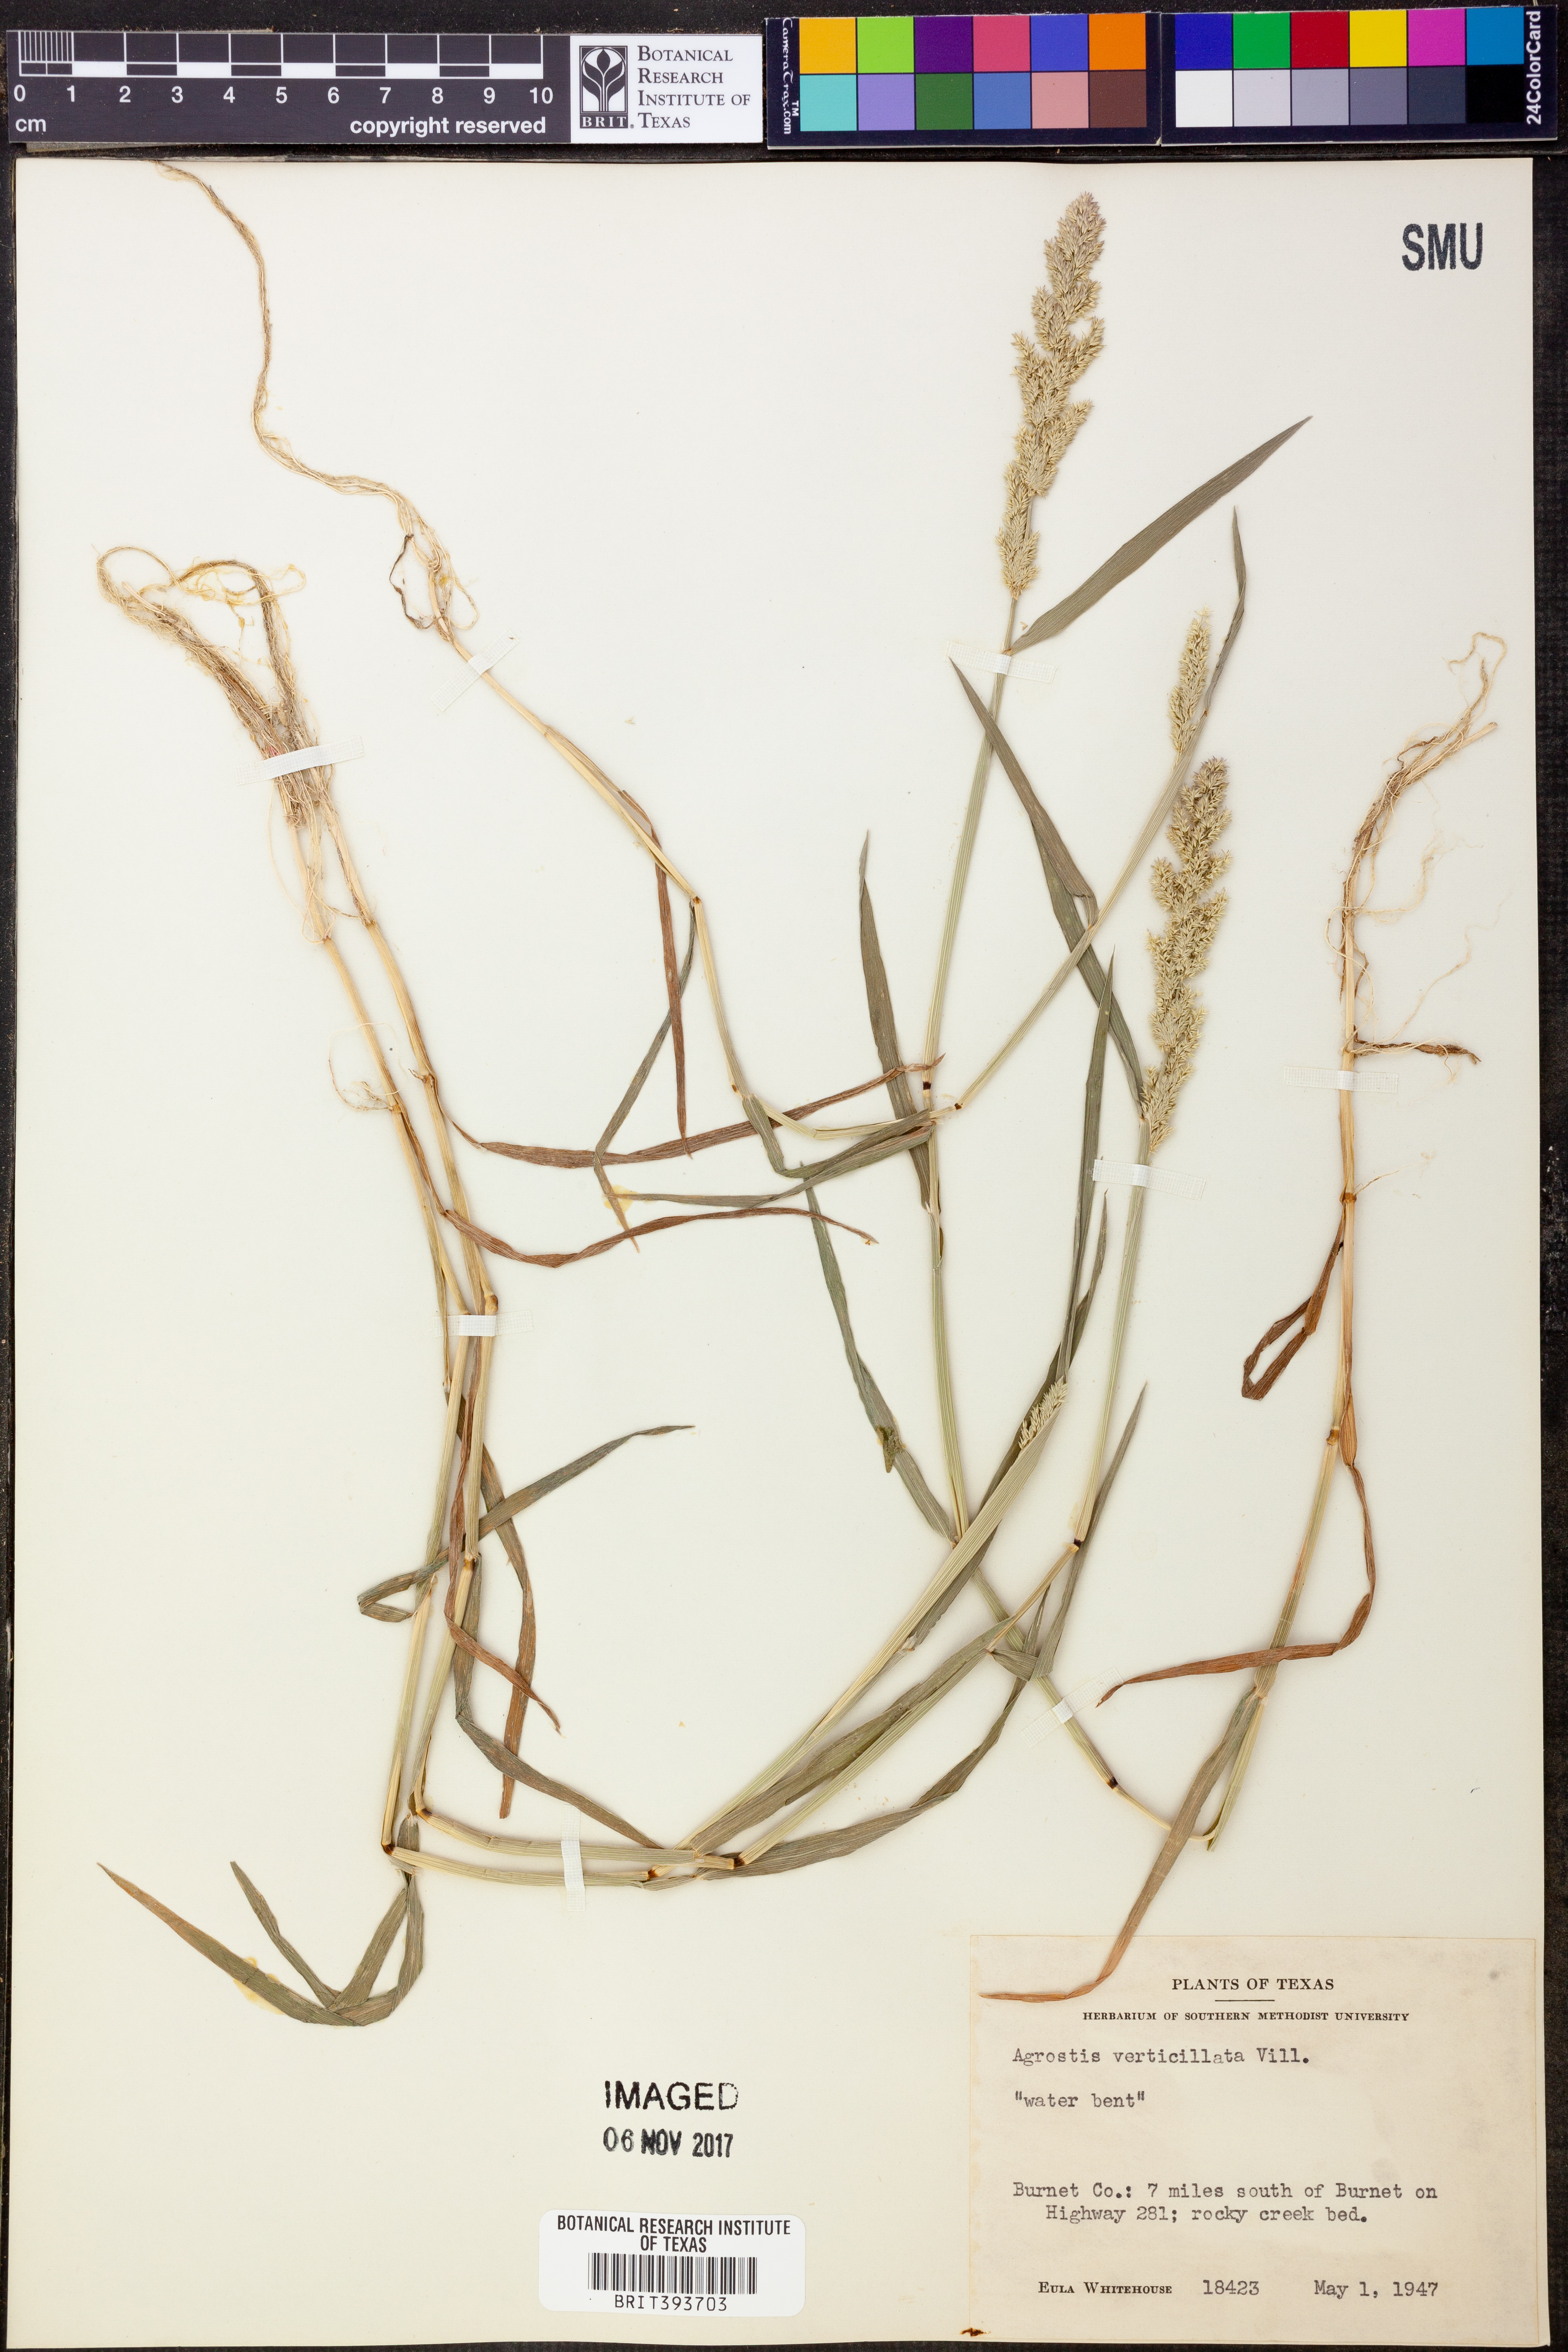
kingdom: Plantae
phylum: Tracheophyta
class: Liliopsida
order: Poales
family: Poaceae
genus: Polypogon
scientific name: Polypogon viridis
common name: Water bent
